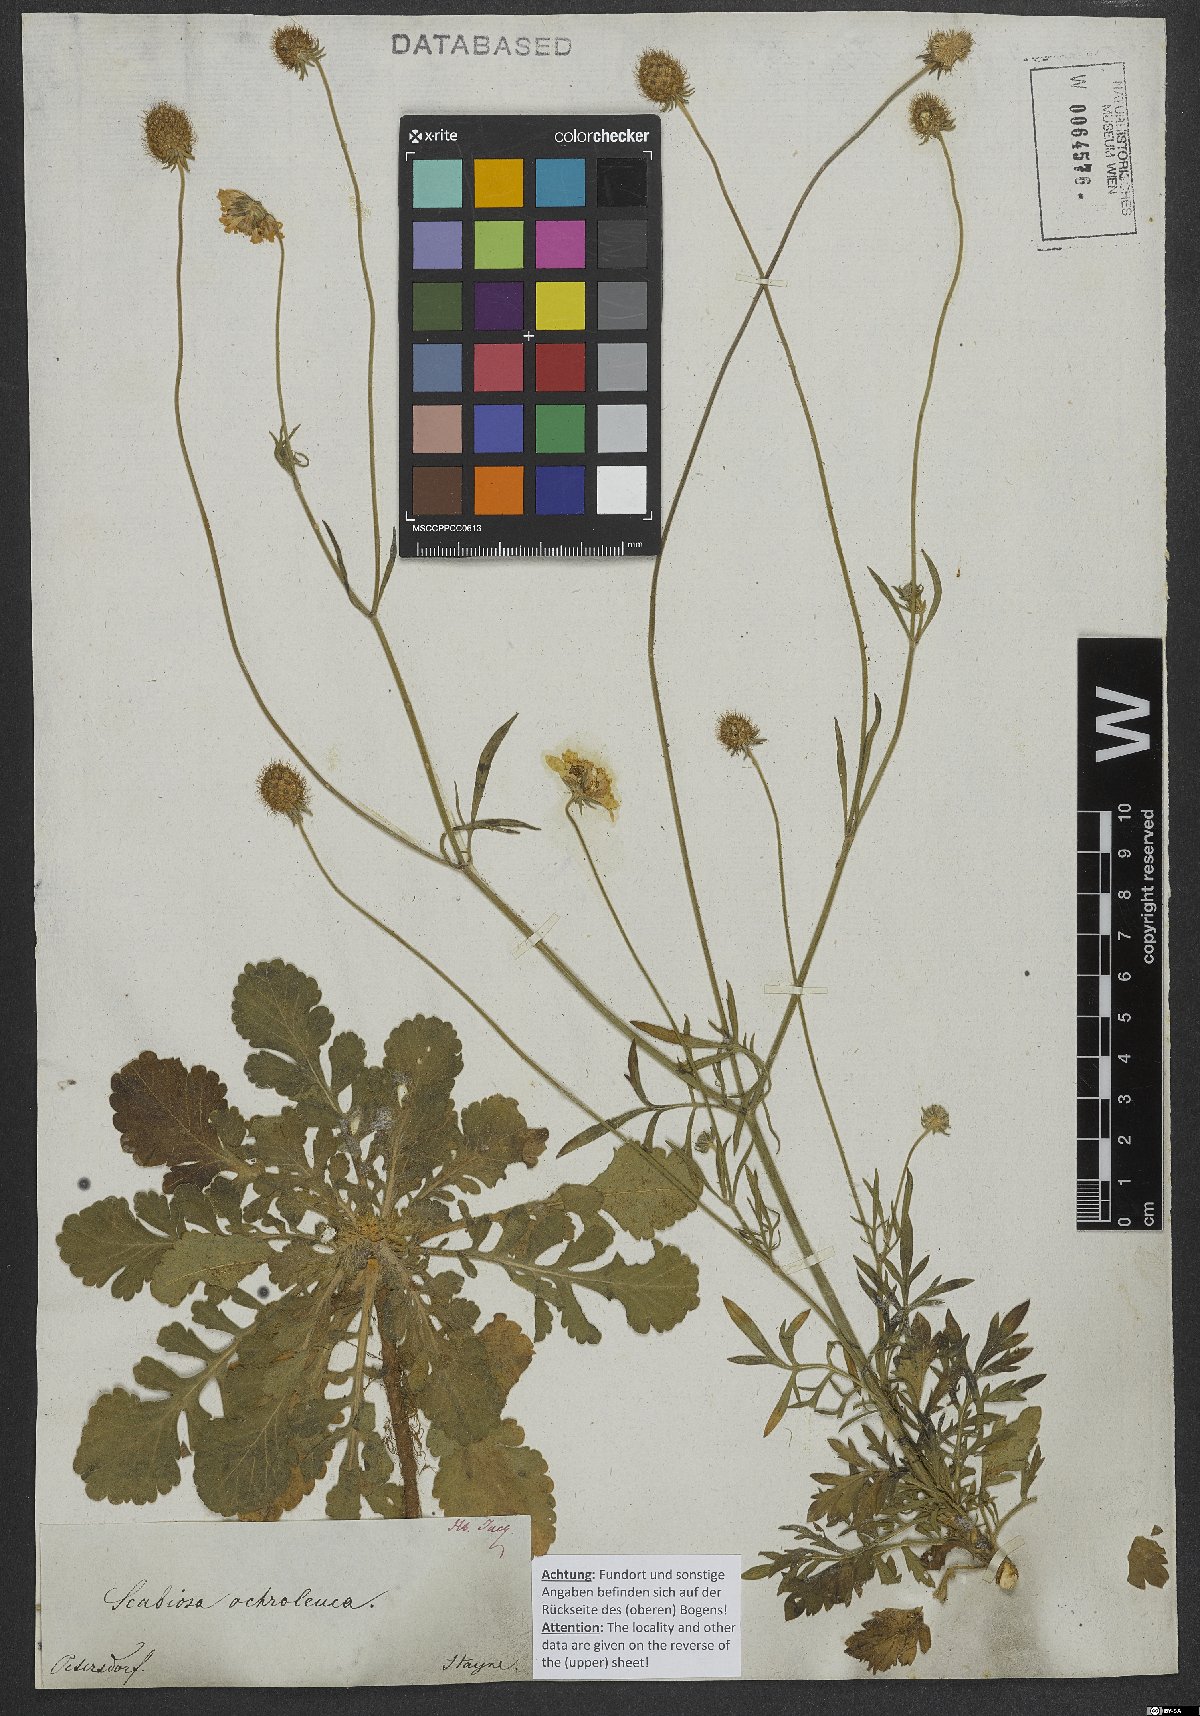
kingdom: Plantae
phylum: Tracheophyta
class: Magnoliopsida
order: Dipsacales
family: Caprifoliaceae
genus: Scabiosa
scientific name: Scabiosa ochroleuca
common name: Cream pincushions
